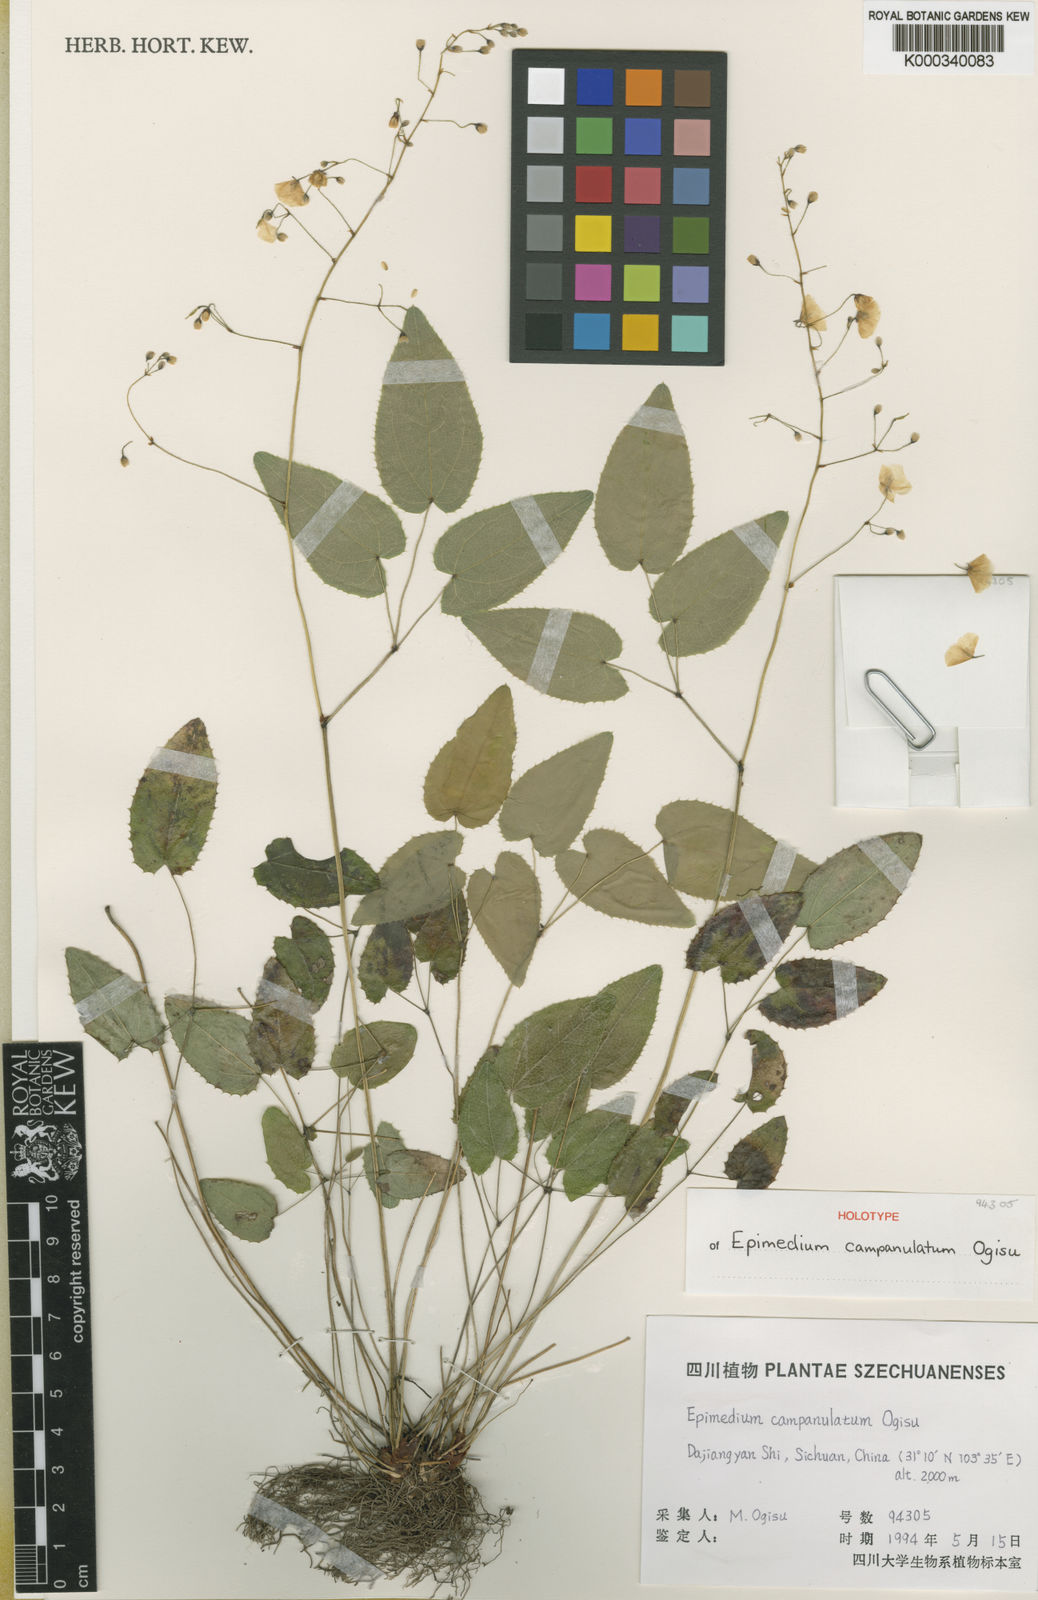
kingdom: Plantae
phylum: Tracheophyta
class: Magnoliopsida
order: Ranunculales
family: Berberidaceae
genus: Epimedium
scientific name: Epimedium campanulatum
